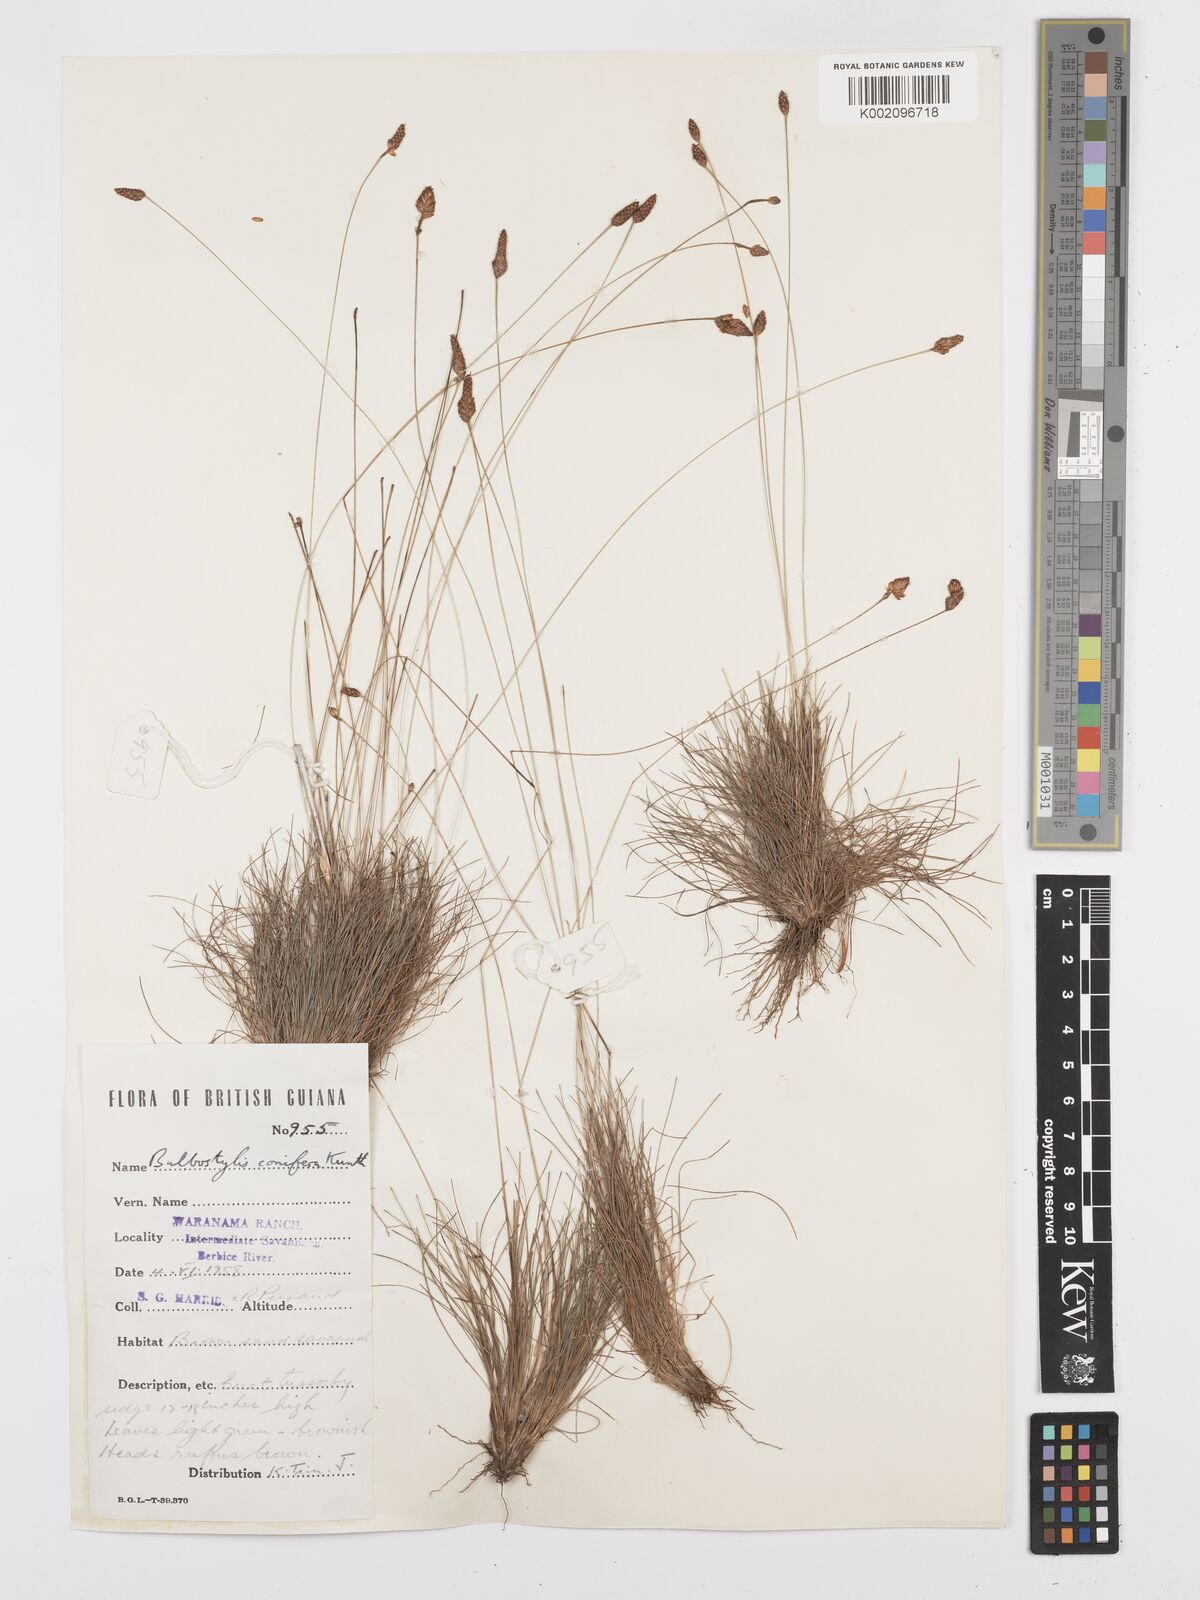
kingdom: Plantae
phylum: Tracheophyta
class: Liliopsida
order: Poales
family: Cyperaceae
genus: Bulbostylis
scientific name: Bulbostylis conifera
